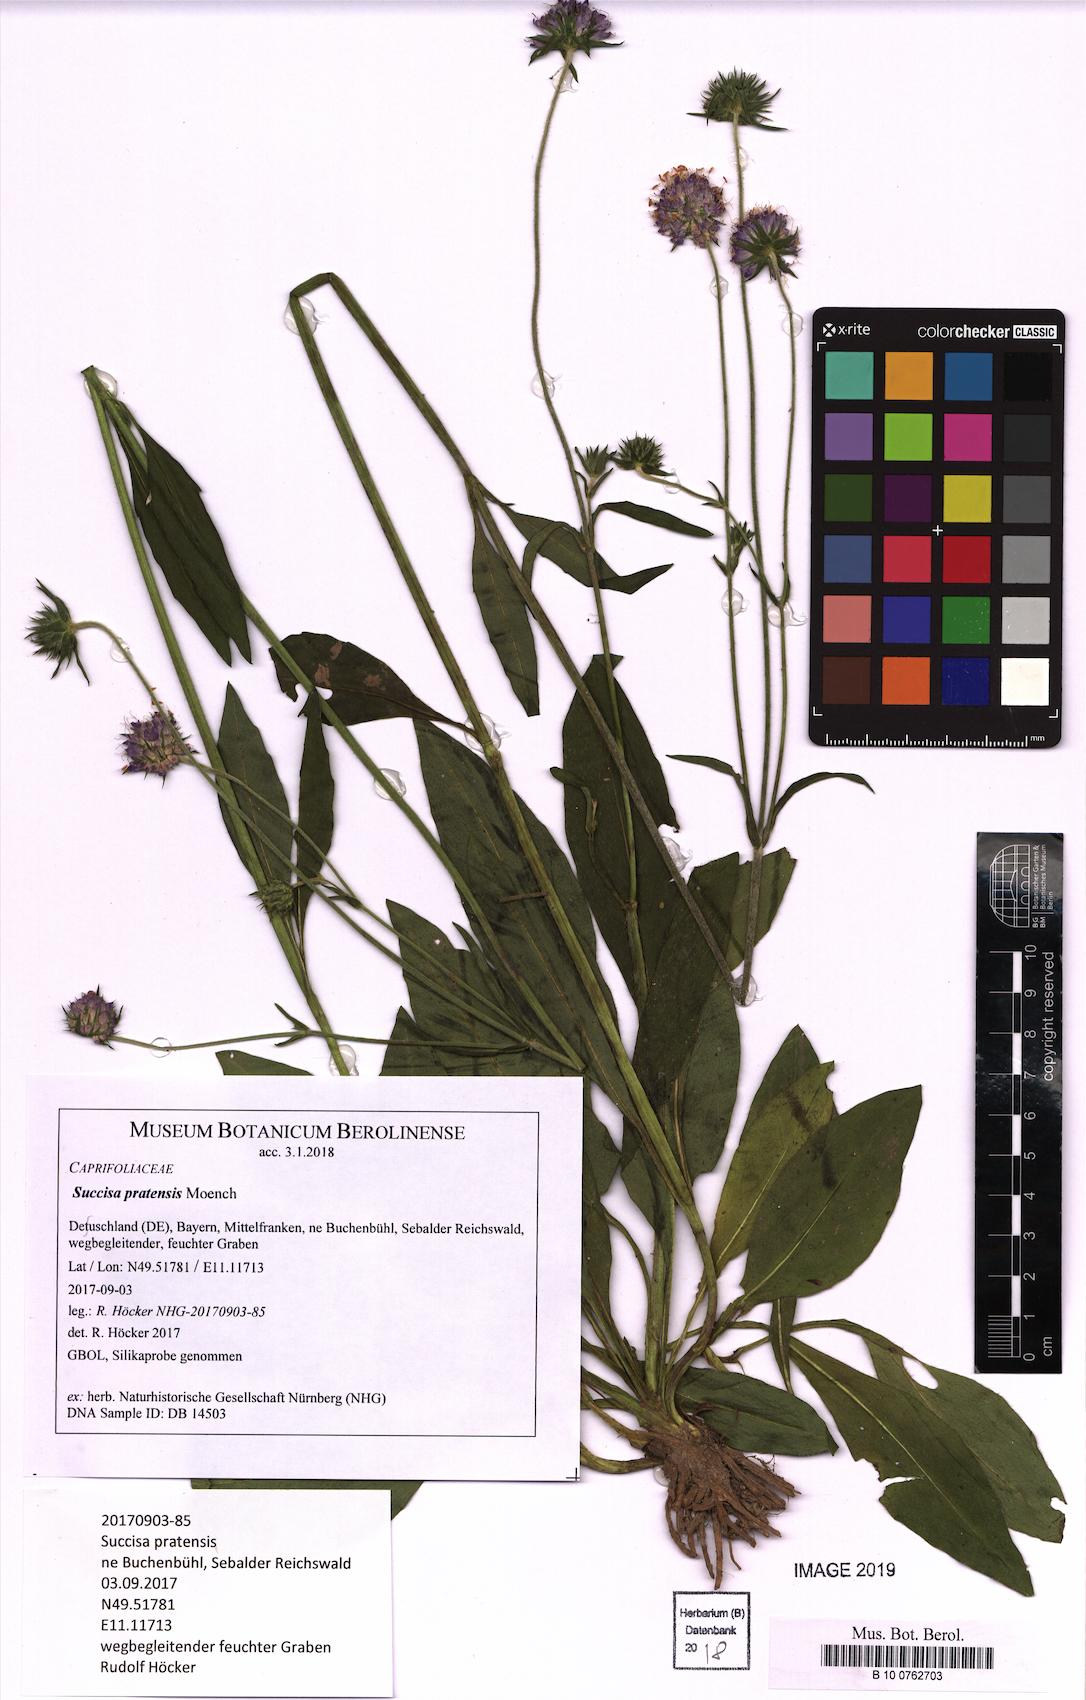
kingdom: Plantae
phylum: Tracheophyta
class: Magnoliopsida
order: Dipsacales
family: Caprifoliaceae
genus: Succisa
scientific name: Succisa pratensis
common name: Devil's-bit
